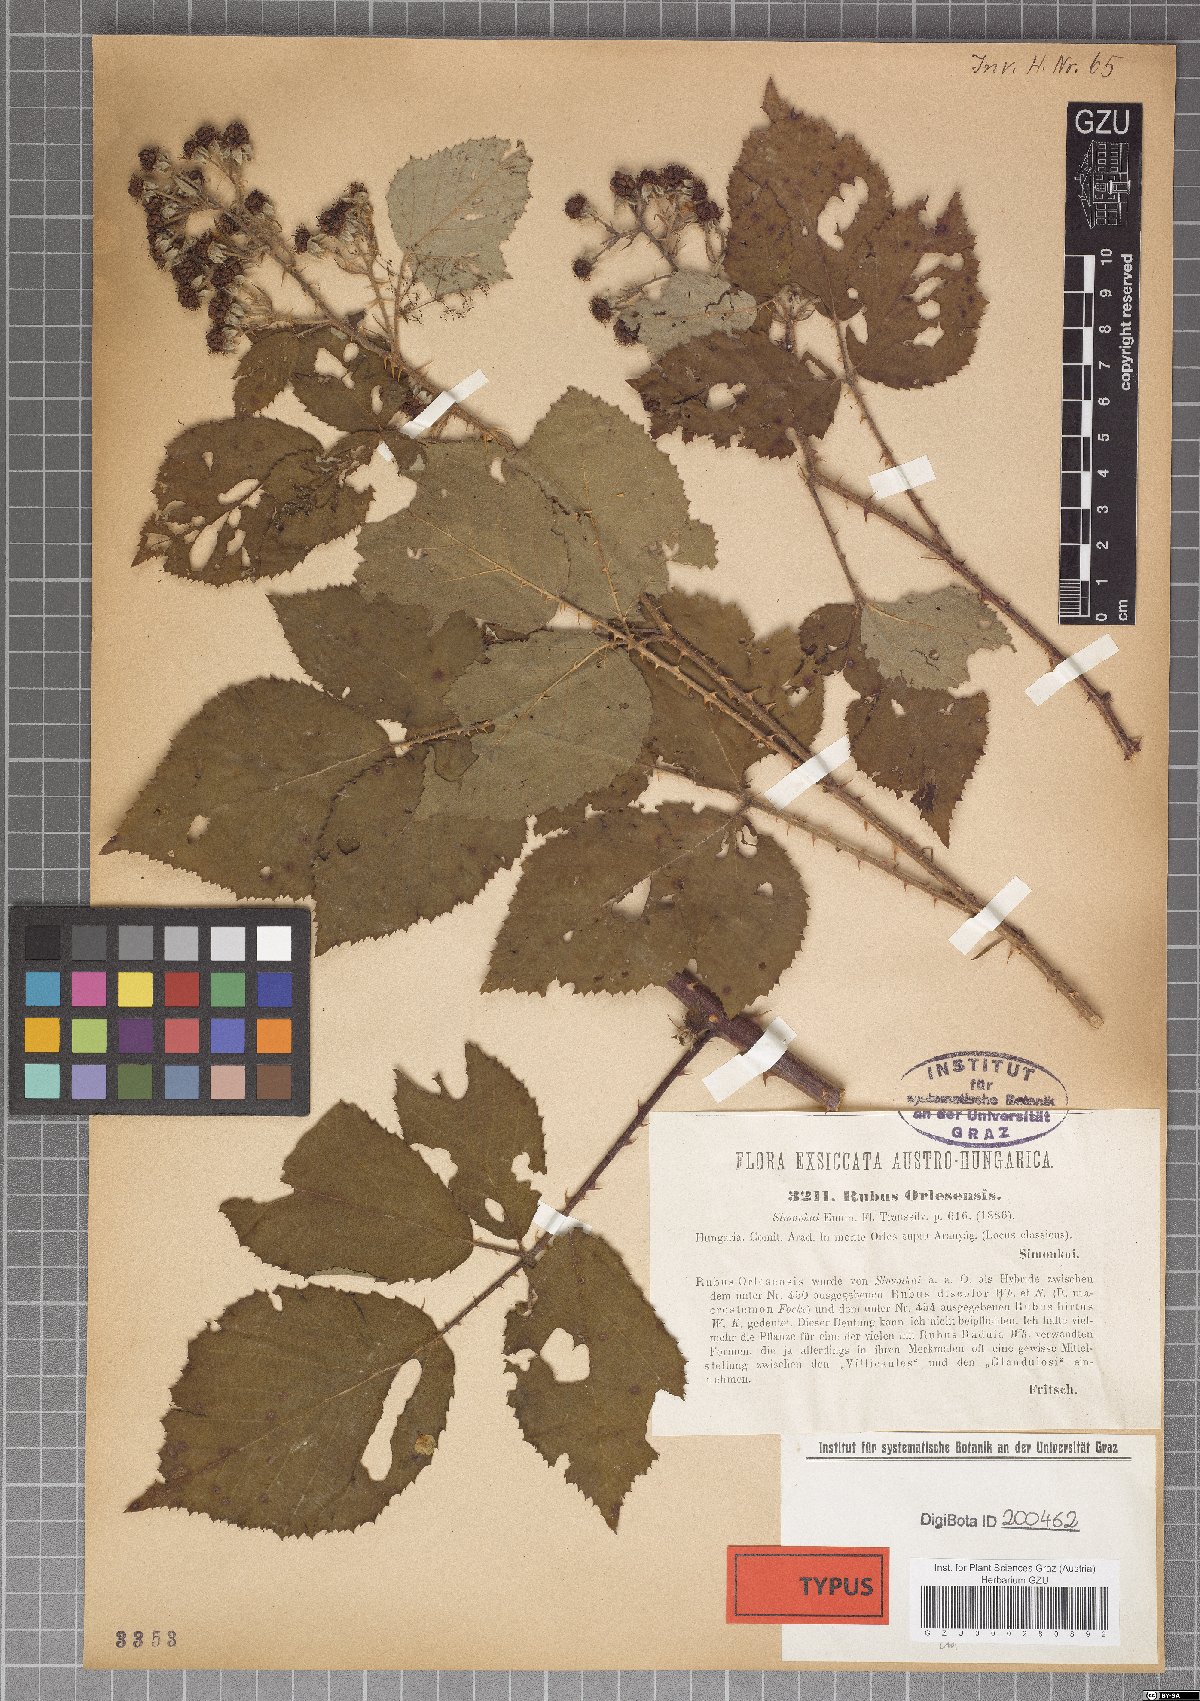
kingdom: Plantae
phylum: Tracheophyta
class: Magnoliopsida
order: Rosales
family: Rosaceae
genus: Rubus
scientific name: Rubus radula
